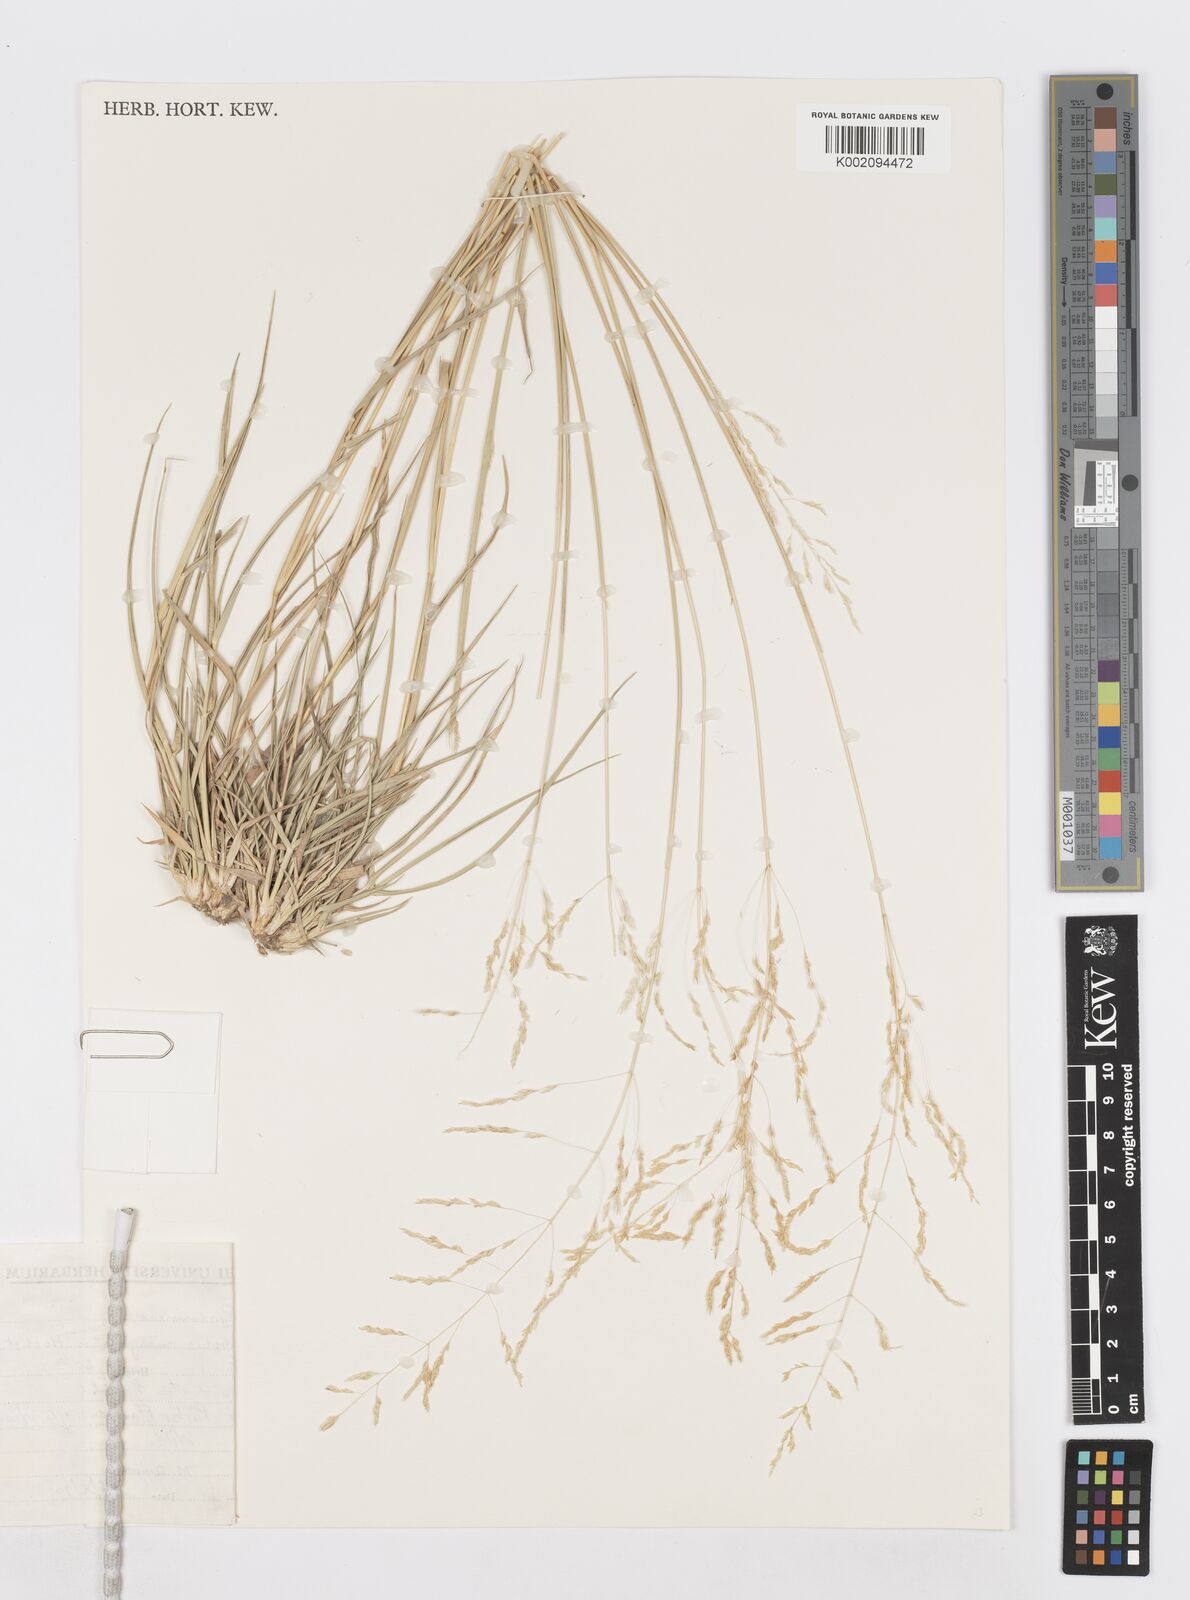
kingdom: Plantae
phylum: Tracheophyta
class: Liliopsida
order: Poales
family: Poaceae
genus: Sporobolus
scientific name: Sporobolus ioclados
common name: Pan dropseed
